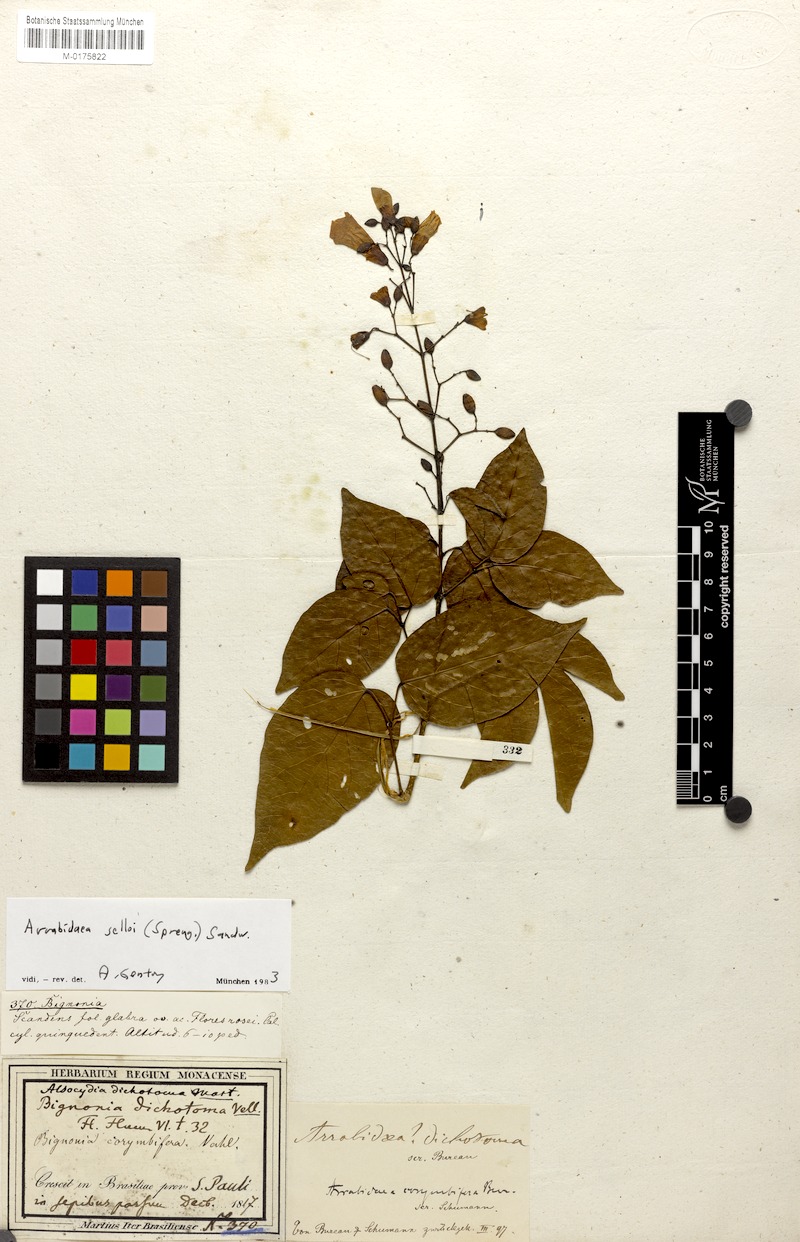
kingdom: Plantae
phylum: Tracheophyta
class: Magnoliopsida
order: Lamiales
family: Bignoniaceae
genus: Tanaecium
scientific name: Tanaecium selloi
